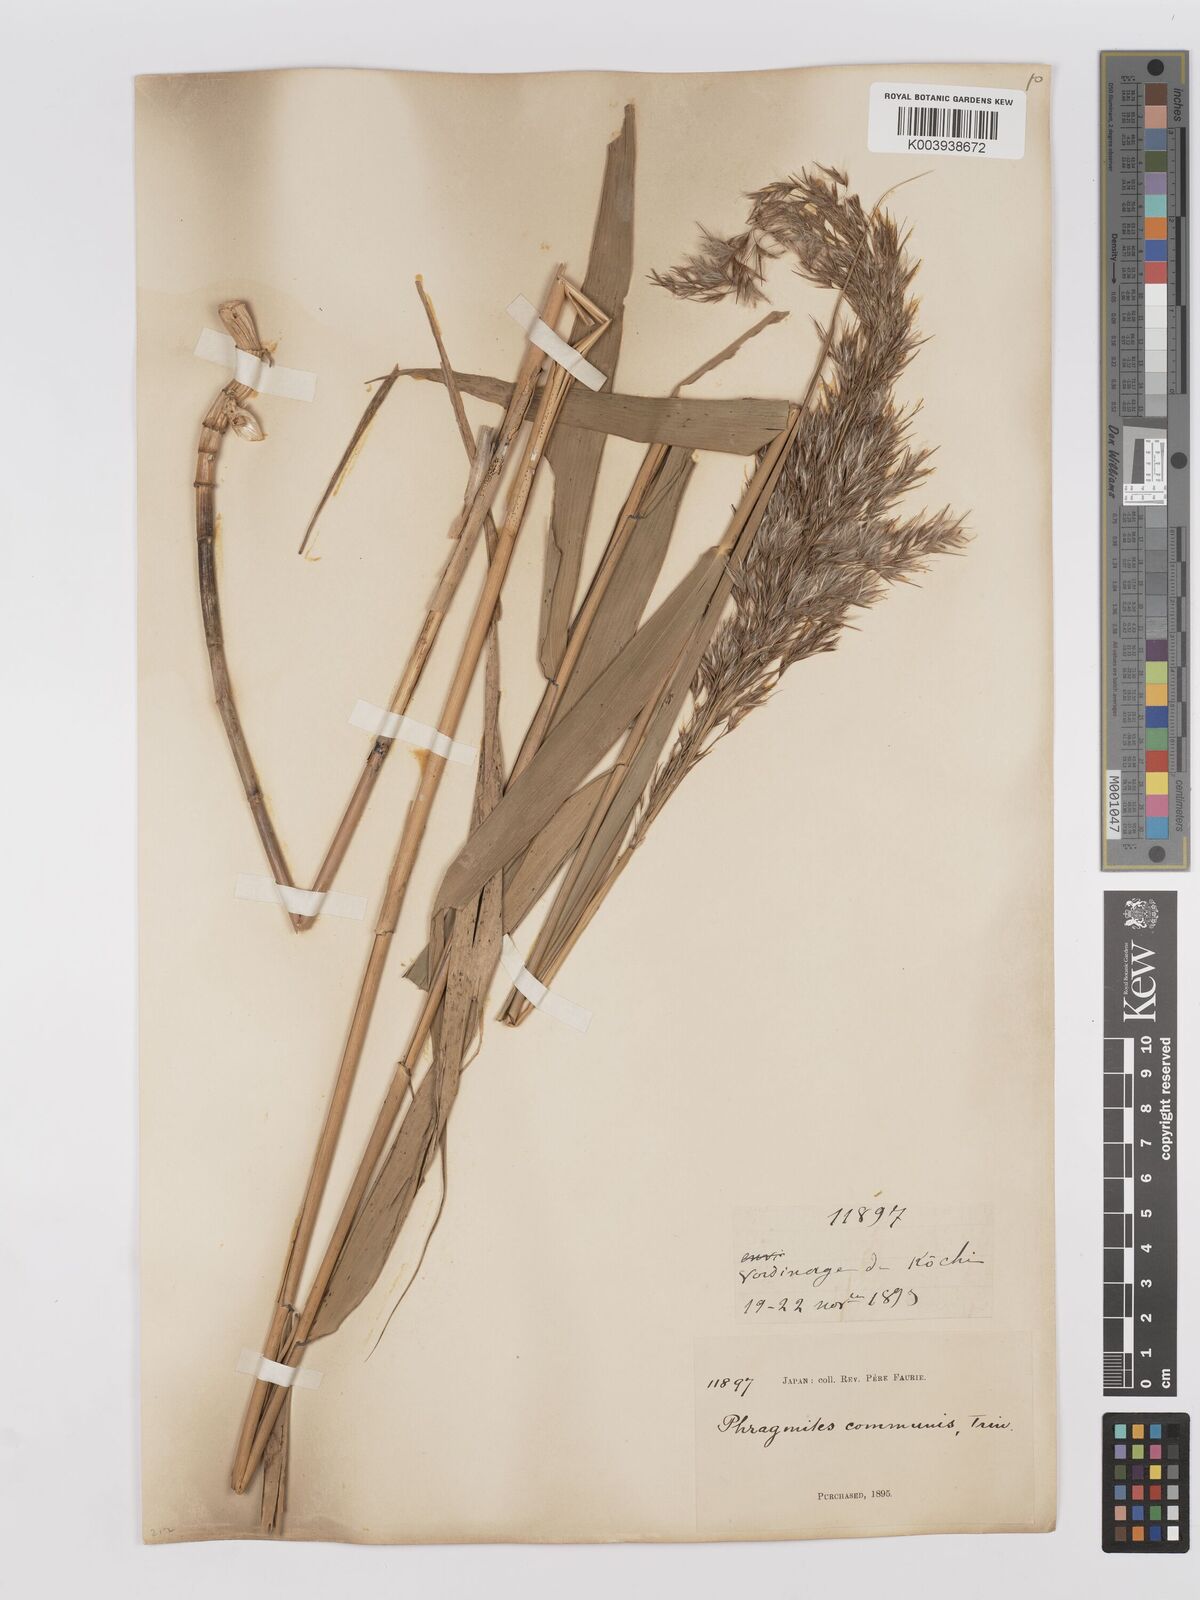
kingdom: Plantae
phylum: Tracheophyta
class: Liliopsida
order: Poales
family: Poaceae
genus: Phragmites
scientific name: Phragmites australis
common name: Common reed
